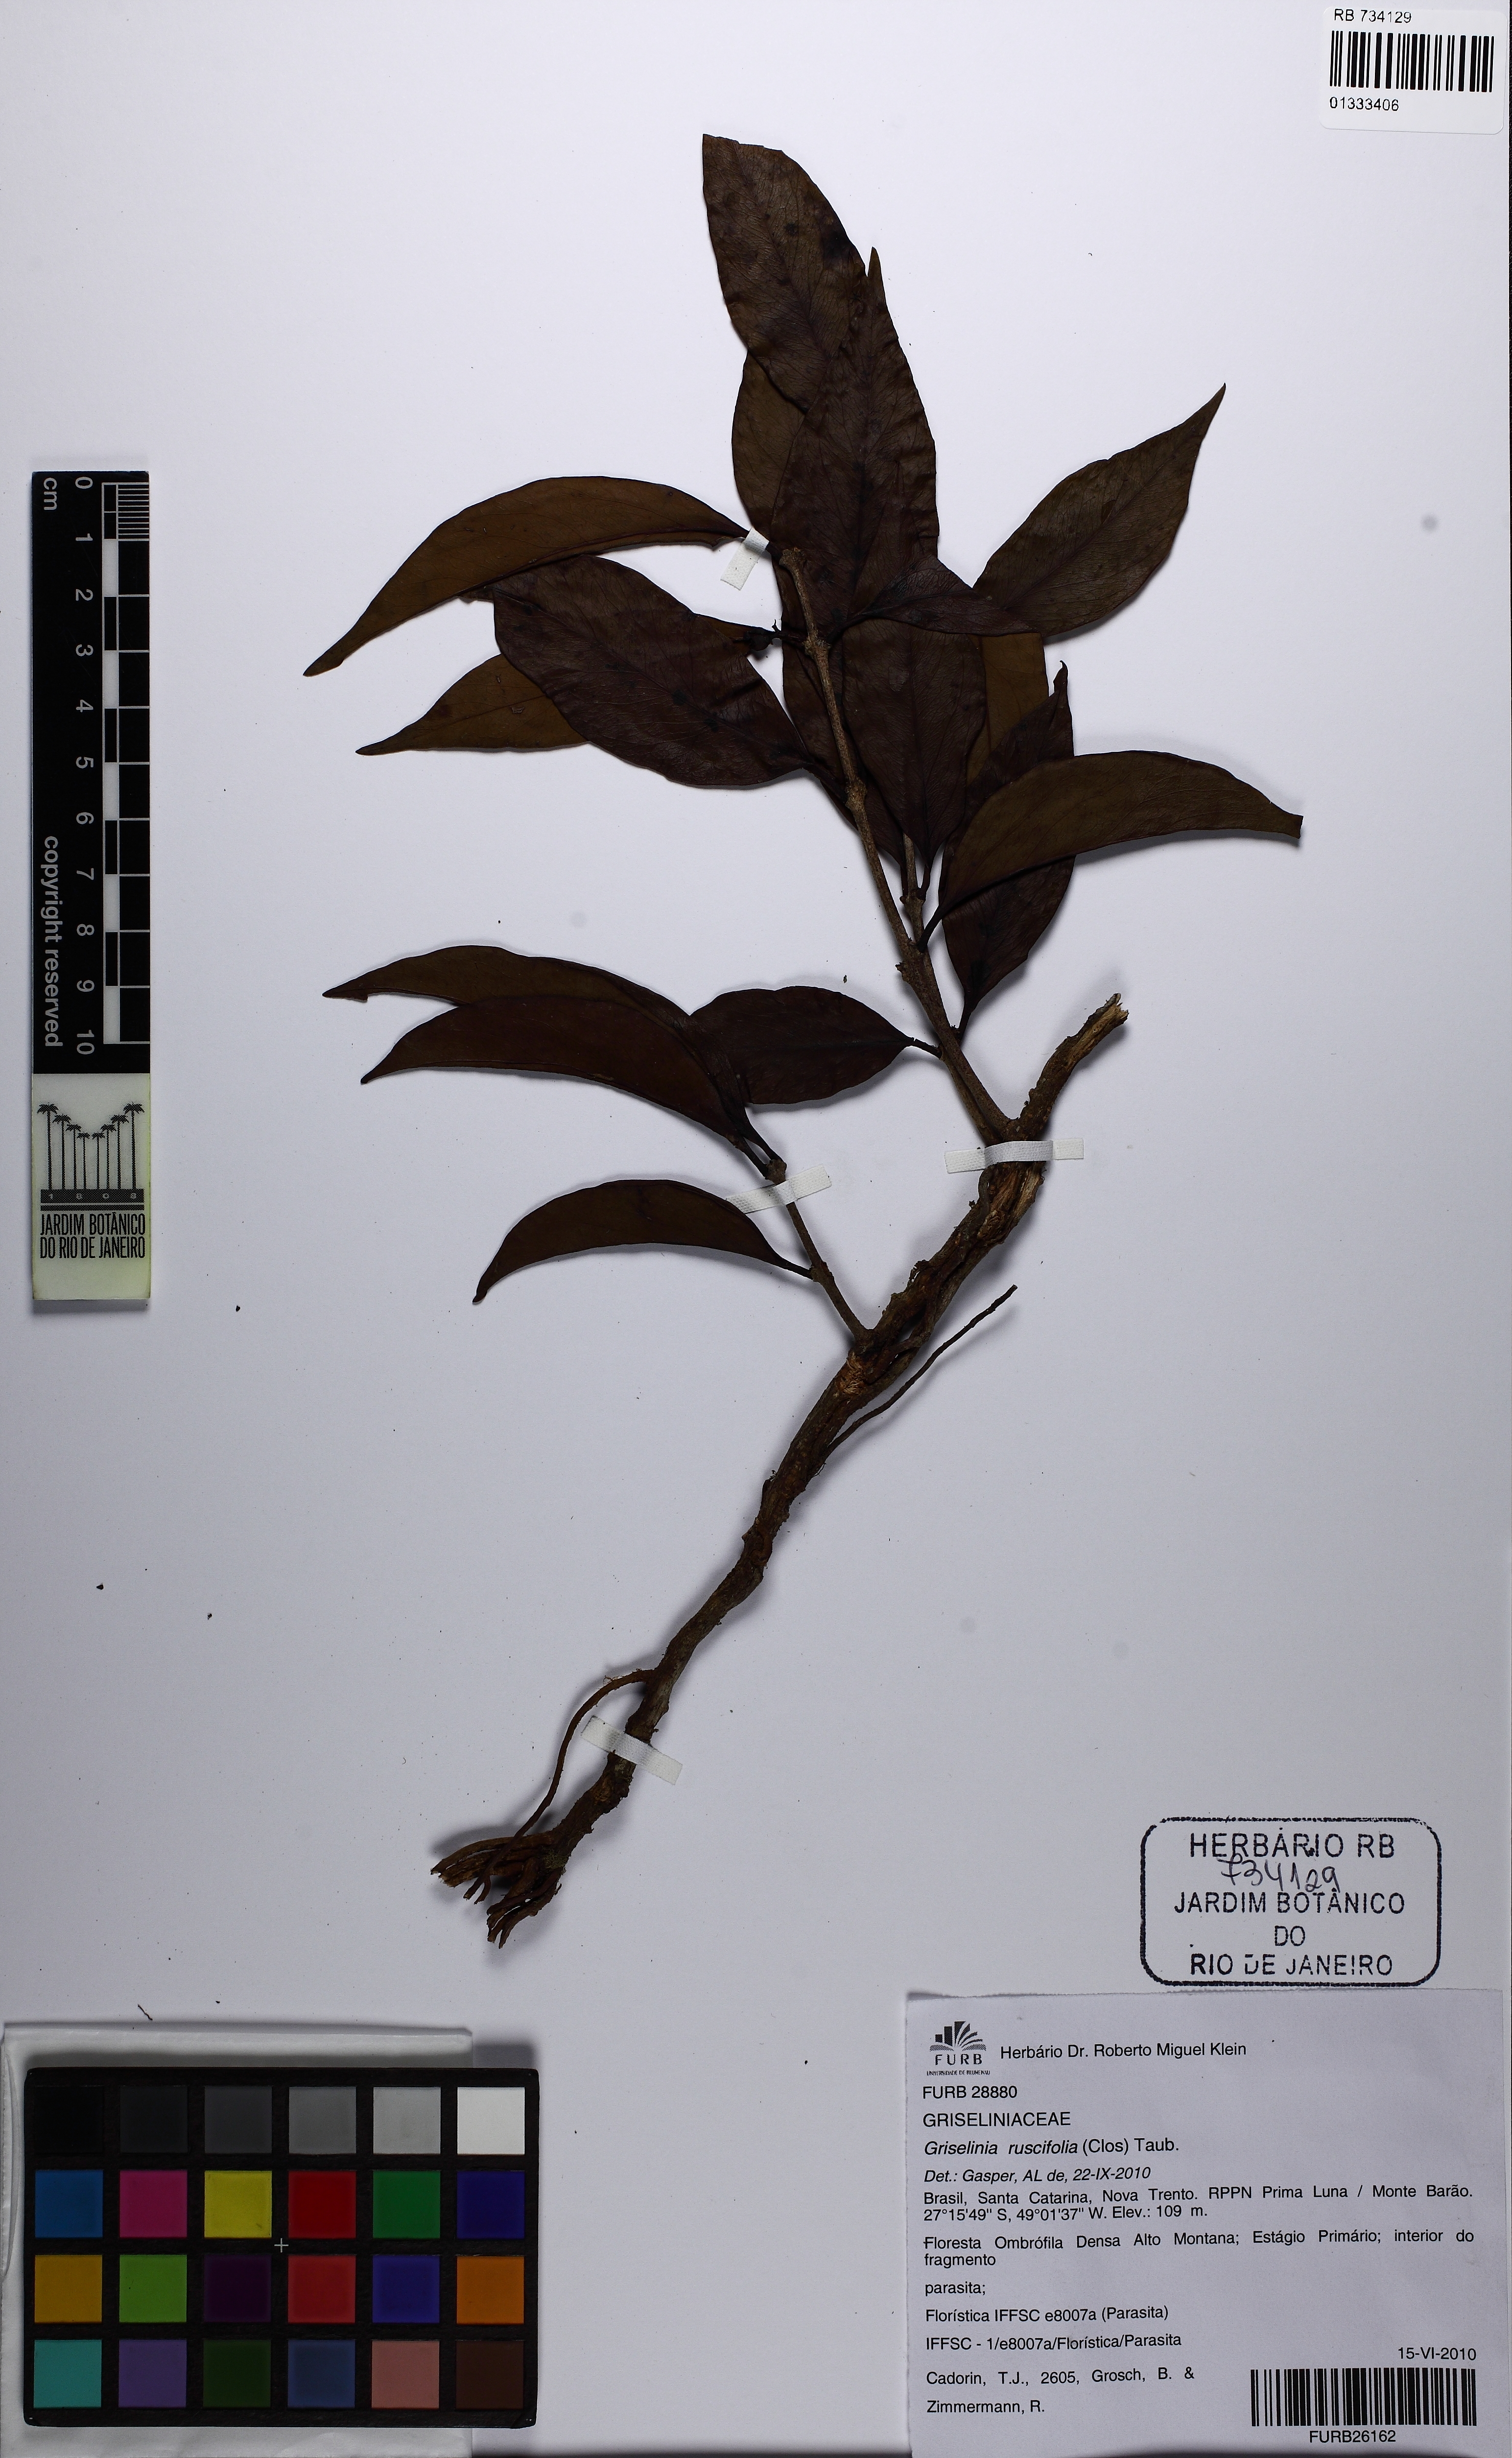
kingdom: Plantae
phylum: Tracheophyta
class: Magnoliopsida
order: Apiales
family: Griseliniaceae
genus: Griselinia
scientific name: Griselinia ruscifolia
